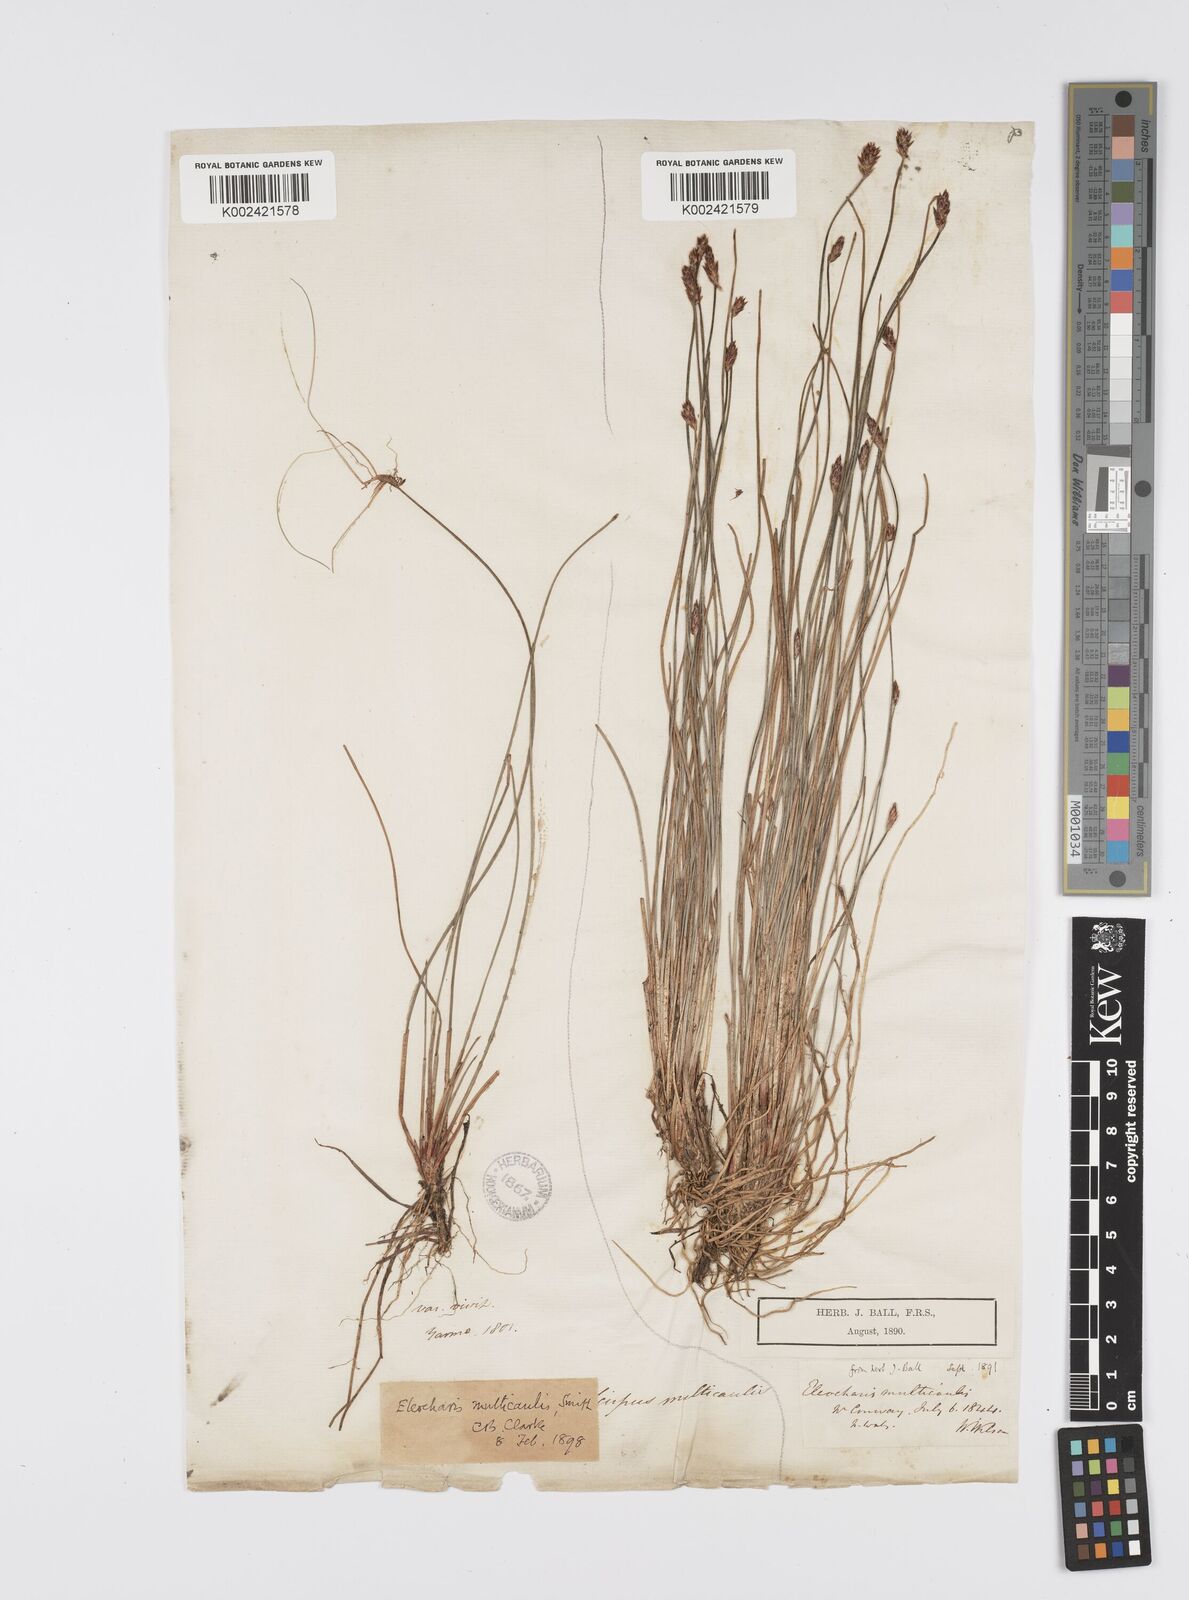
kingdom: Plantae
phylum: Tracheophyta
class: Liliopsida
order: Poales
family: Cyperaceae
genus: Eleocharis
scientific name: Eleocharis multicaulis
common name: Many-stalked spike-rush
